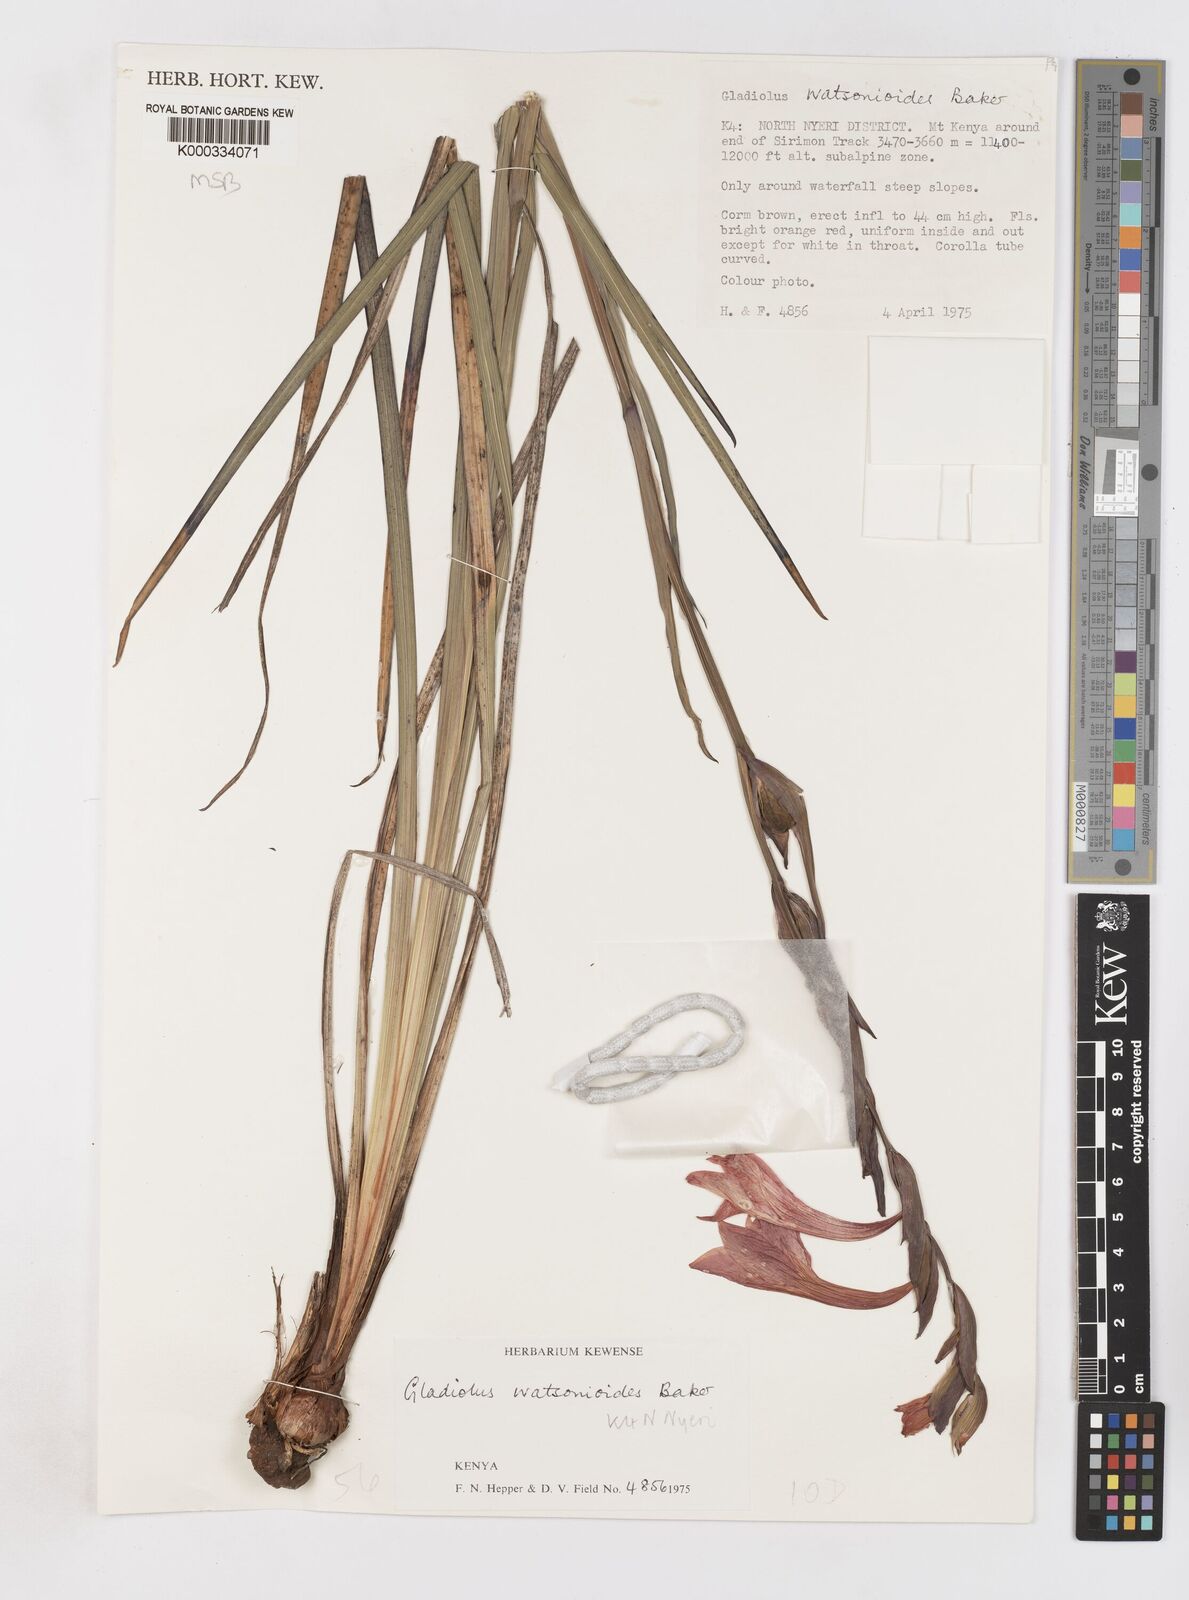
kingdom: Plantae
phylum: Tracheophyta
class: Liliopsida
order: Asparagales
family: Iridaceae
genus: Gladiolus
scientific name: Gladiolus watsonioides
